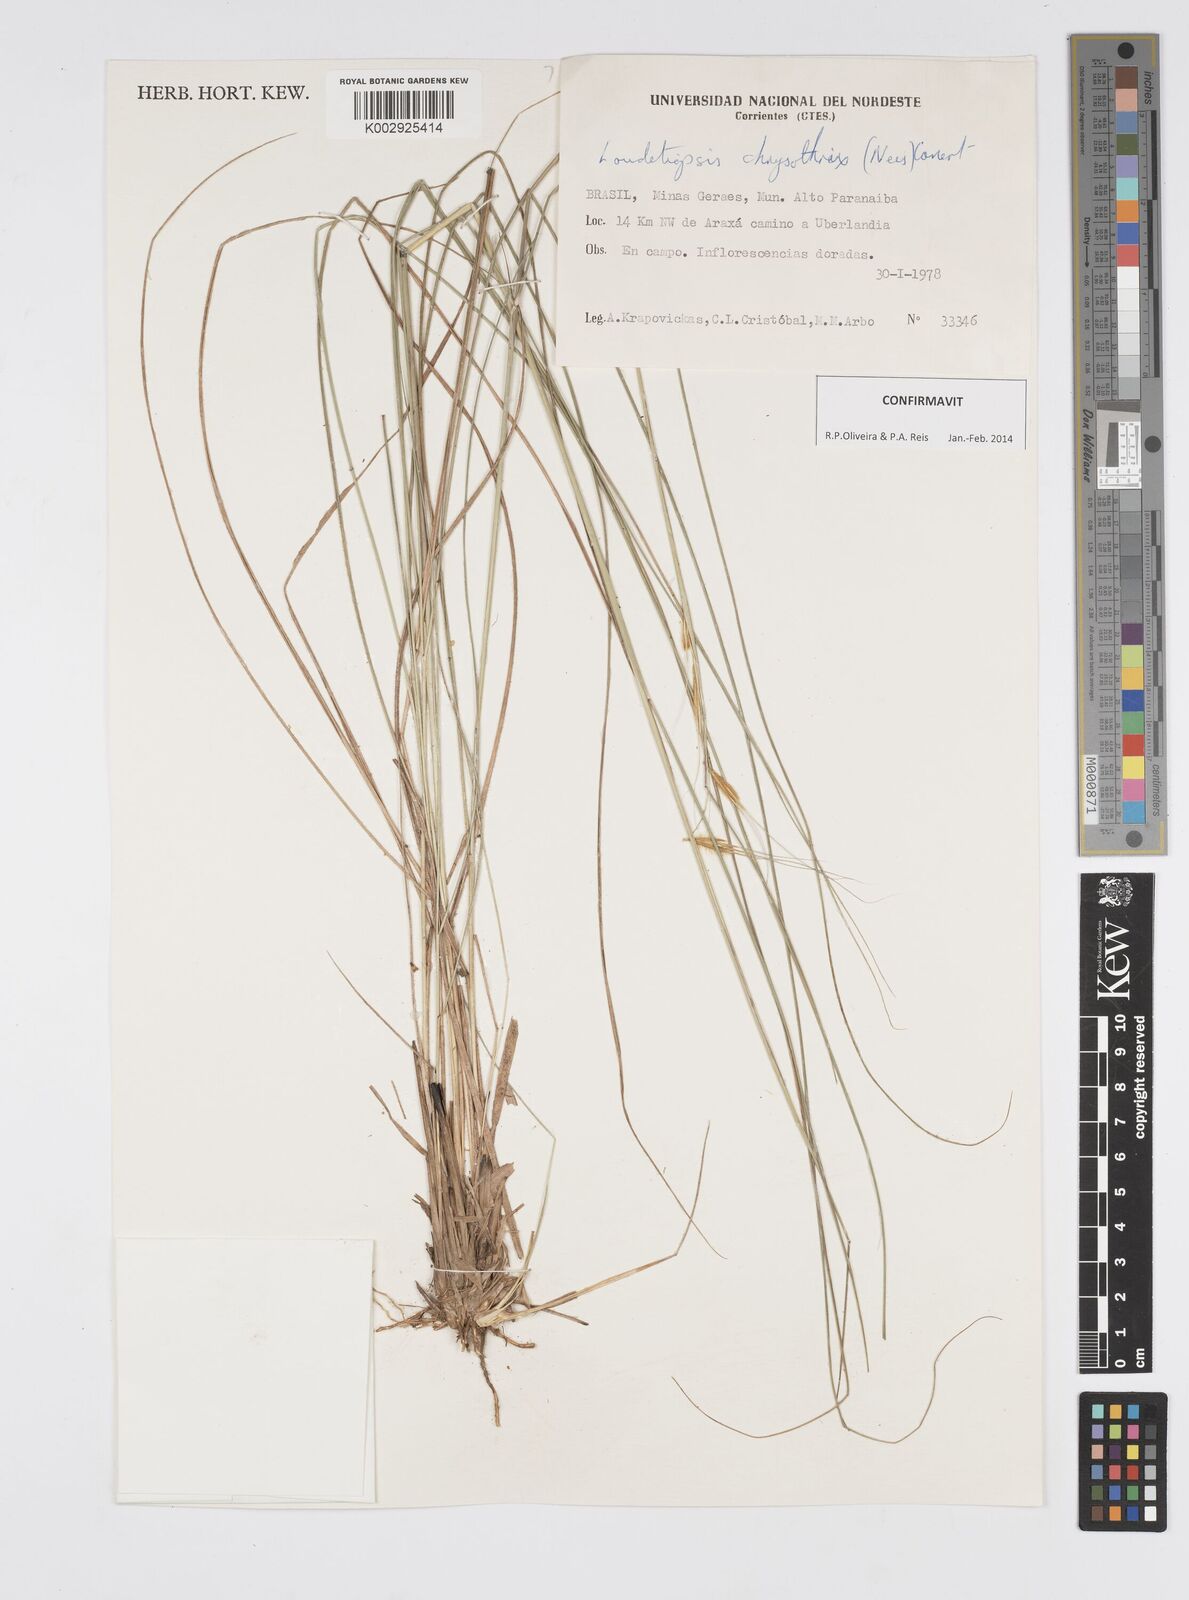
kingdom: Plantae
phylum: Tracheophyta
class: Liliopsida
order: Poales
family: Poaceae
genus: Loudetiopsis
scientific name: Loudetiopsis chrysothrix
